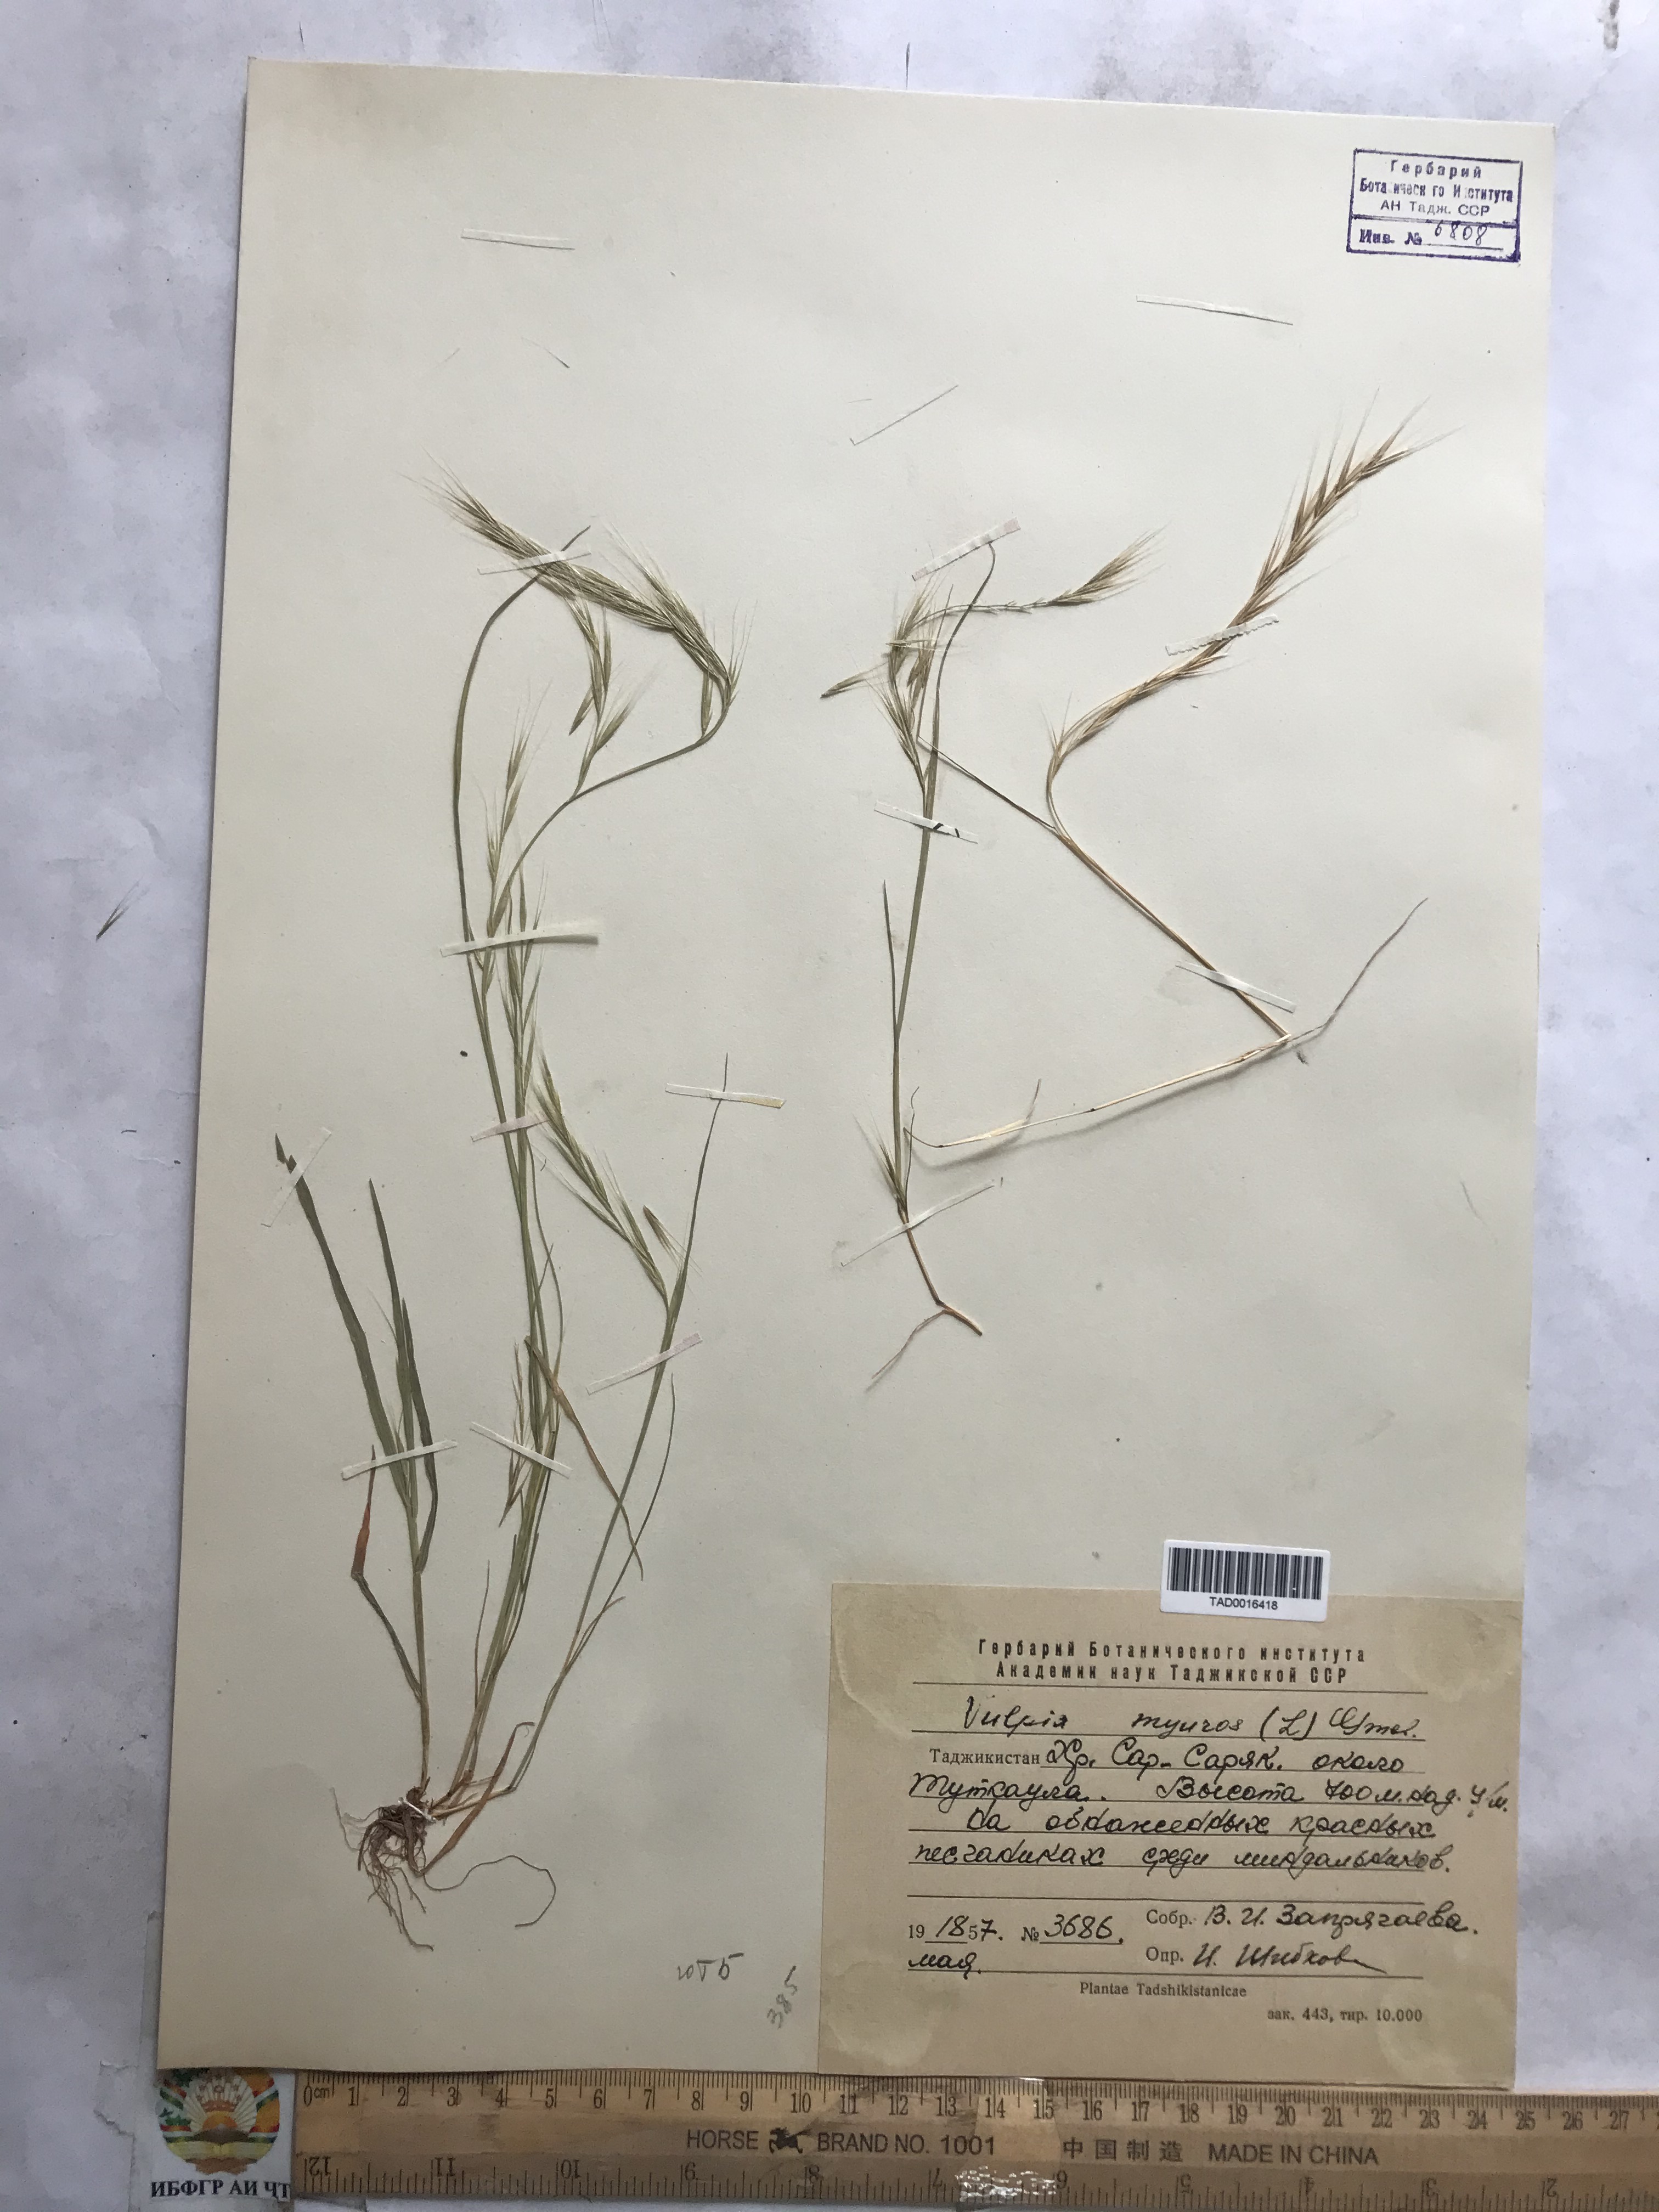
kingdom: Plantae
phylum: Tracheophyta
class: Liliopsida
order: Poales
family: Poaceae
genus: Festuca
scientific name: Festuca myuros
